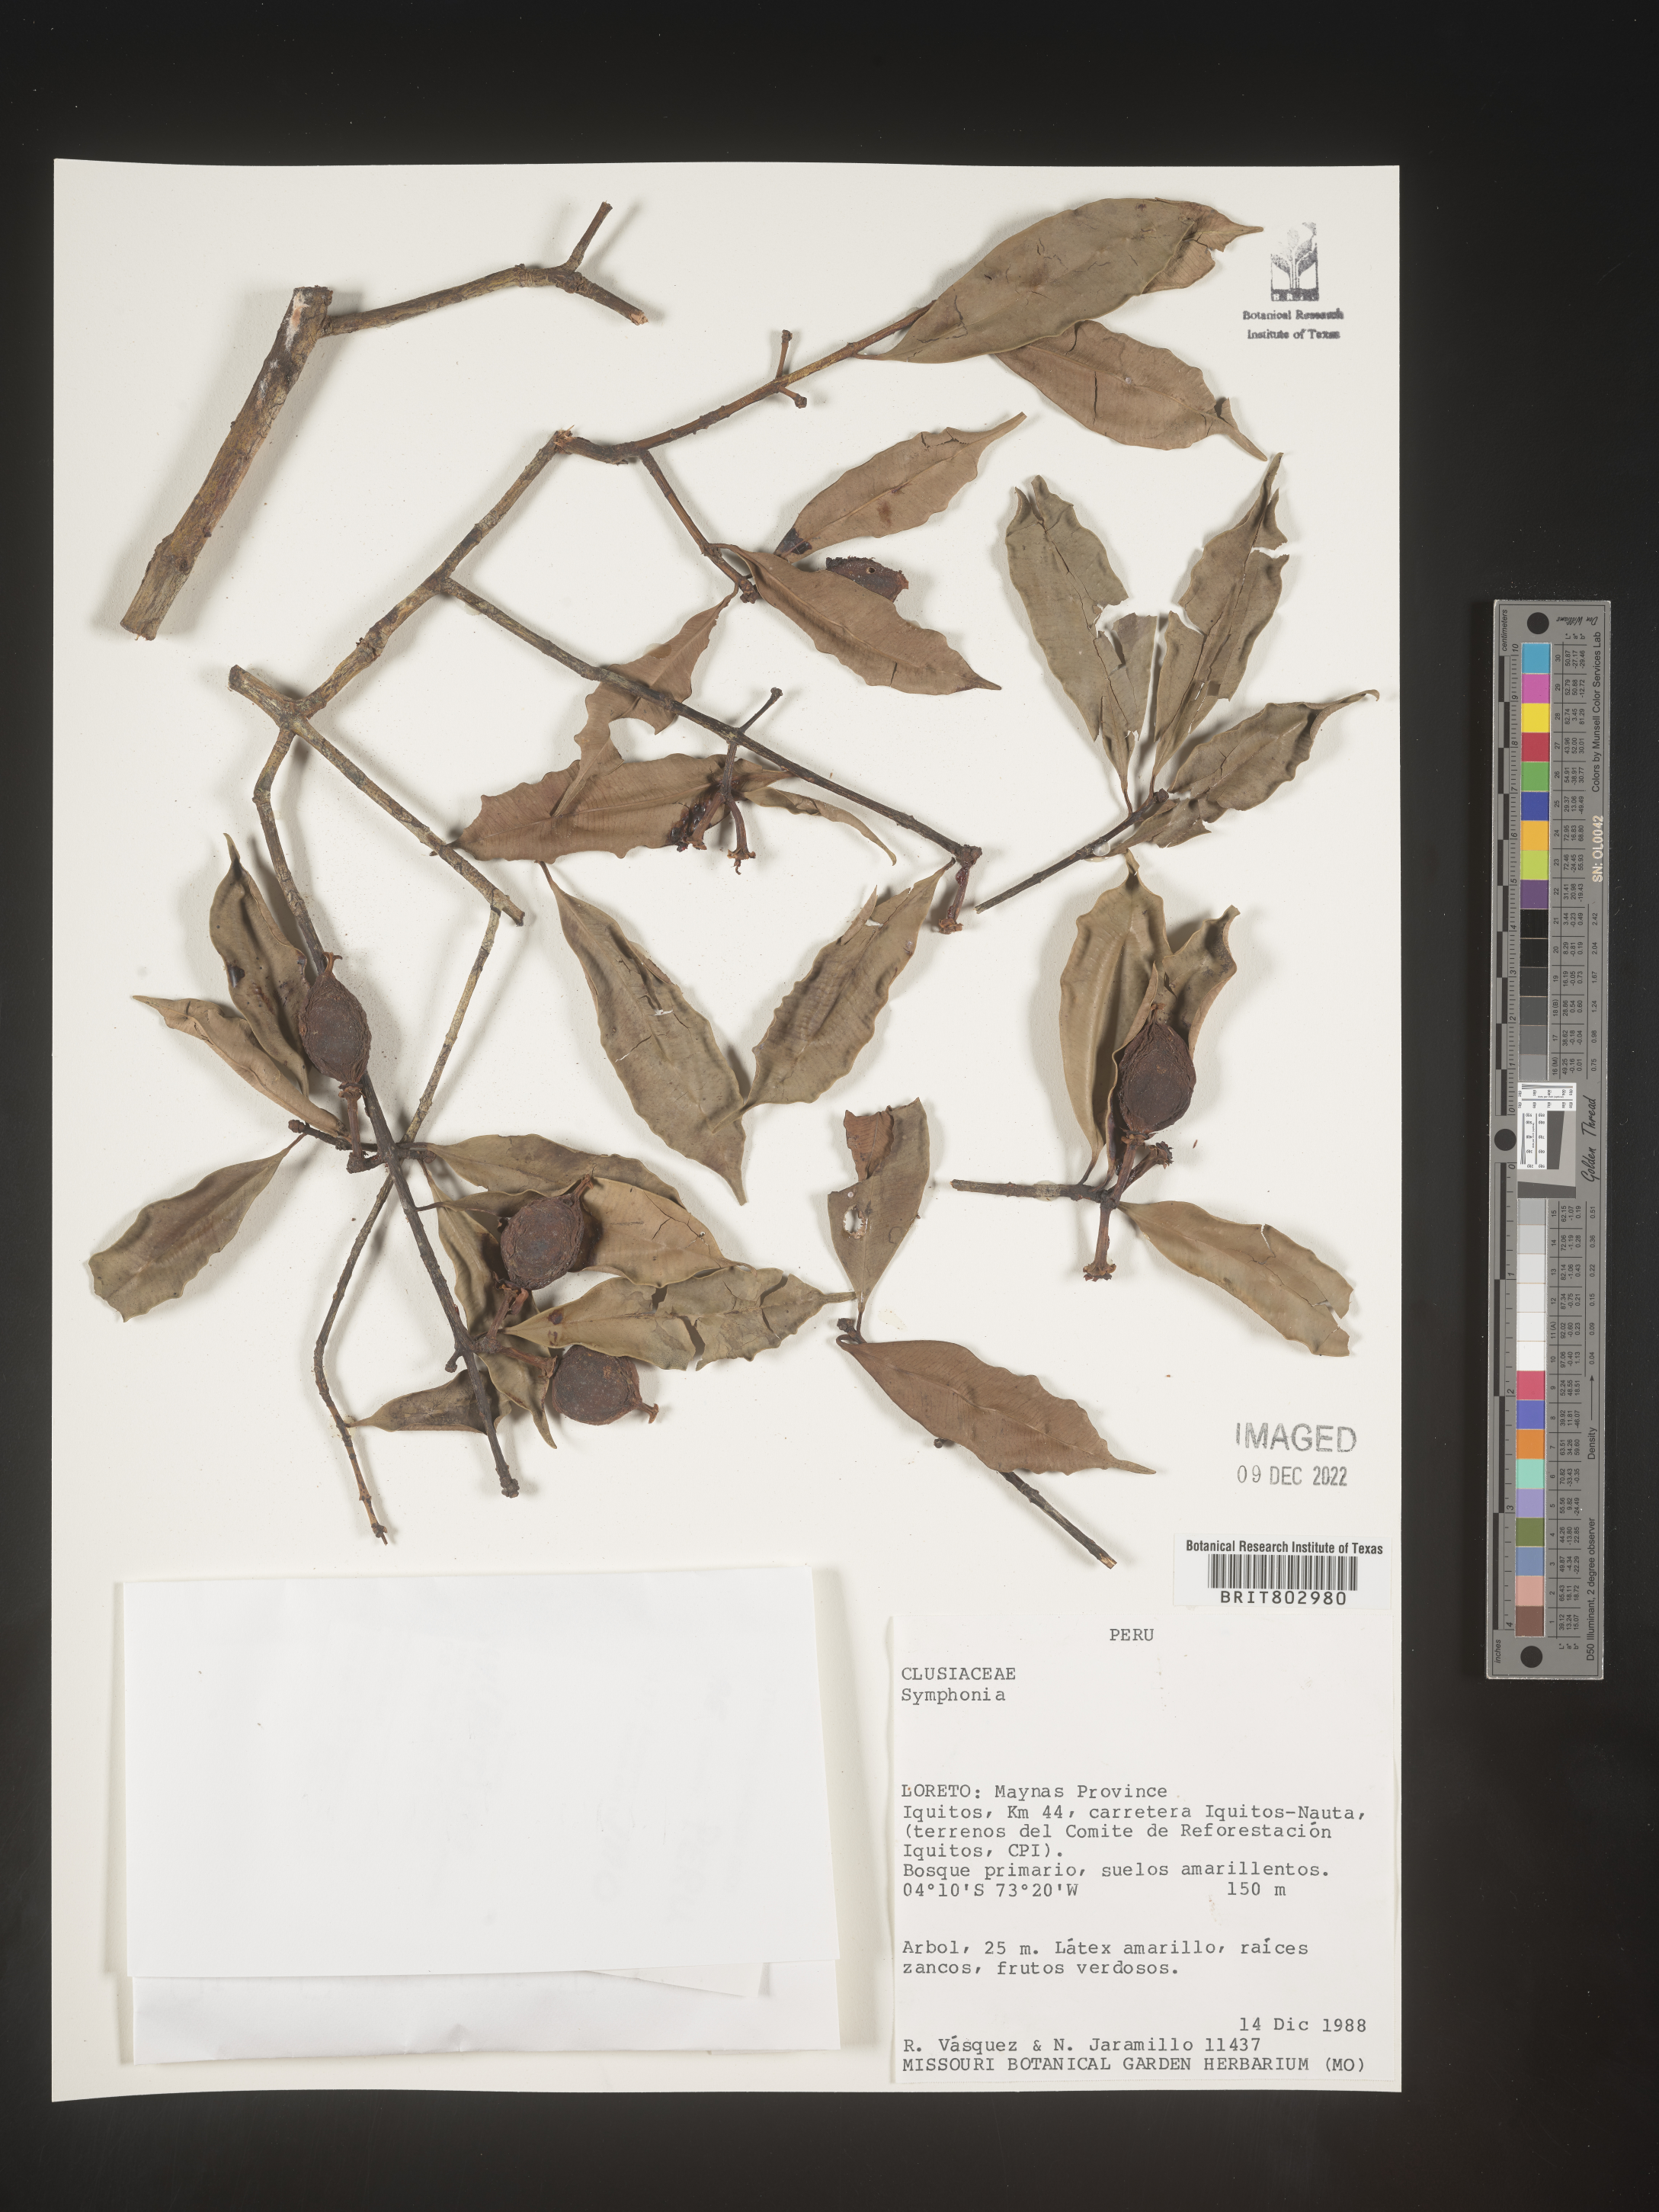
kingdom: Plantae
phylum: Tracheophyta
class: Magnoliopsida
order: Malpighiales
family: Clusiaceae
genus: Symphonia
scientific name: Symphonia globulifera
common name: Boarwood
